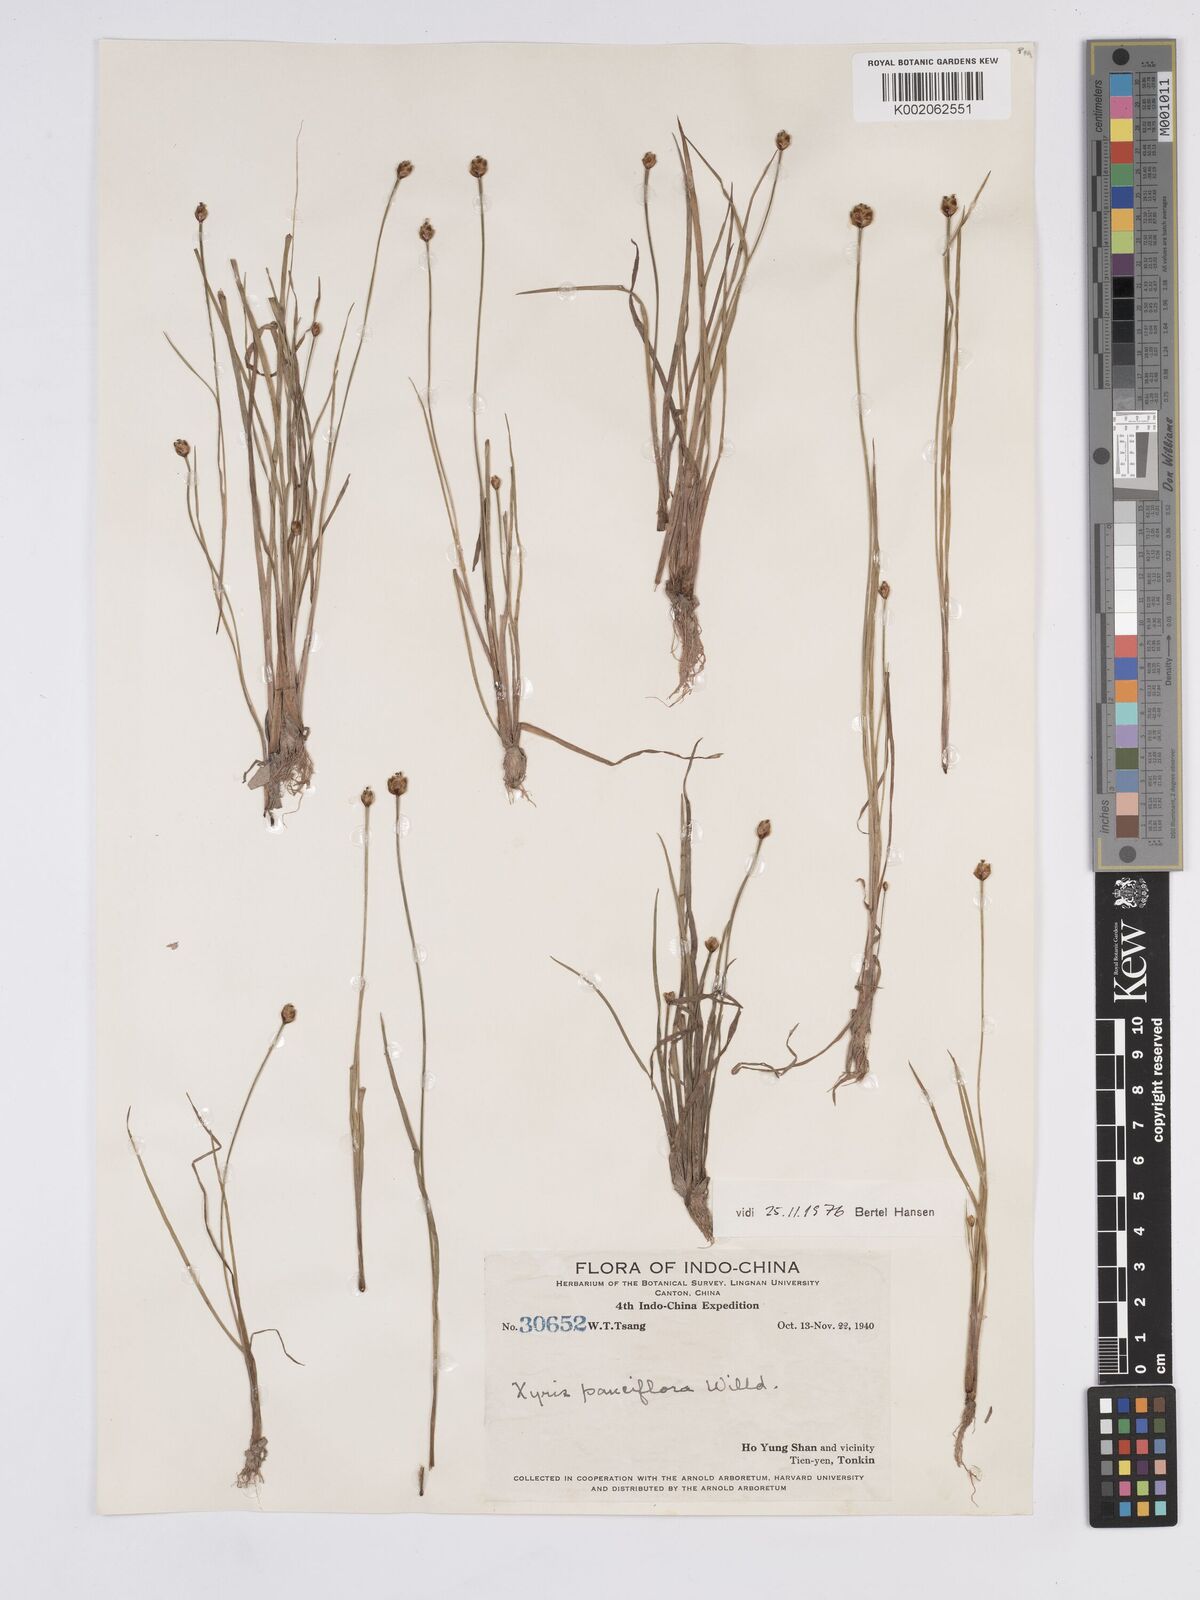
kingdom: Plantae
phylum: Tracheophyta
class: Liliopsida
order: Poales
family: Xyridaceae
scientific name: Xyridaceae
